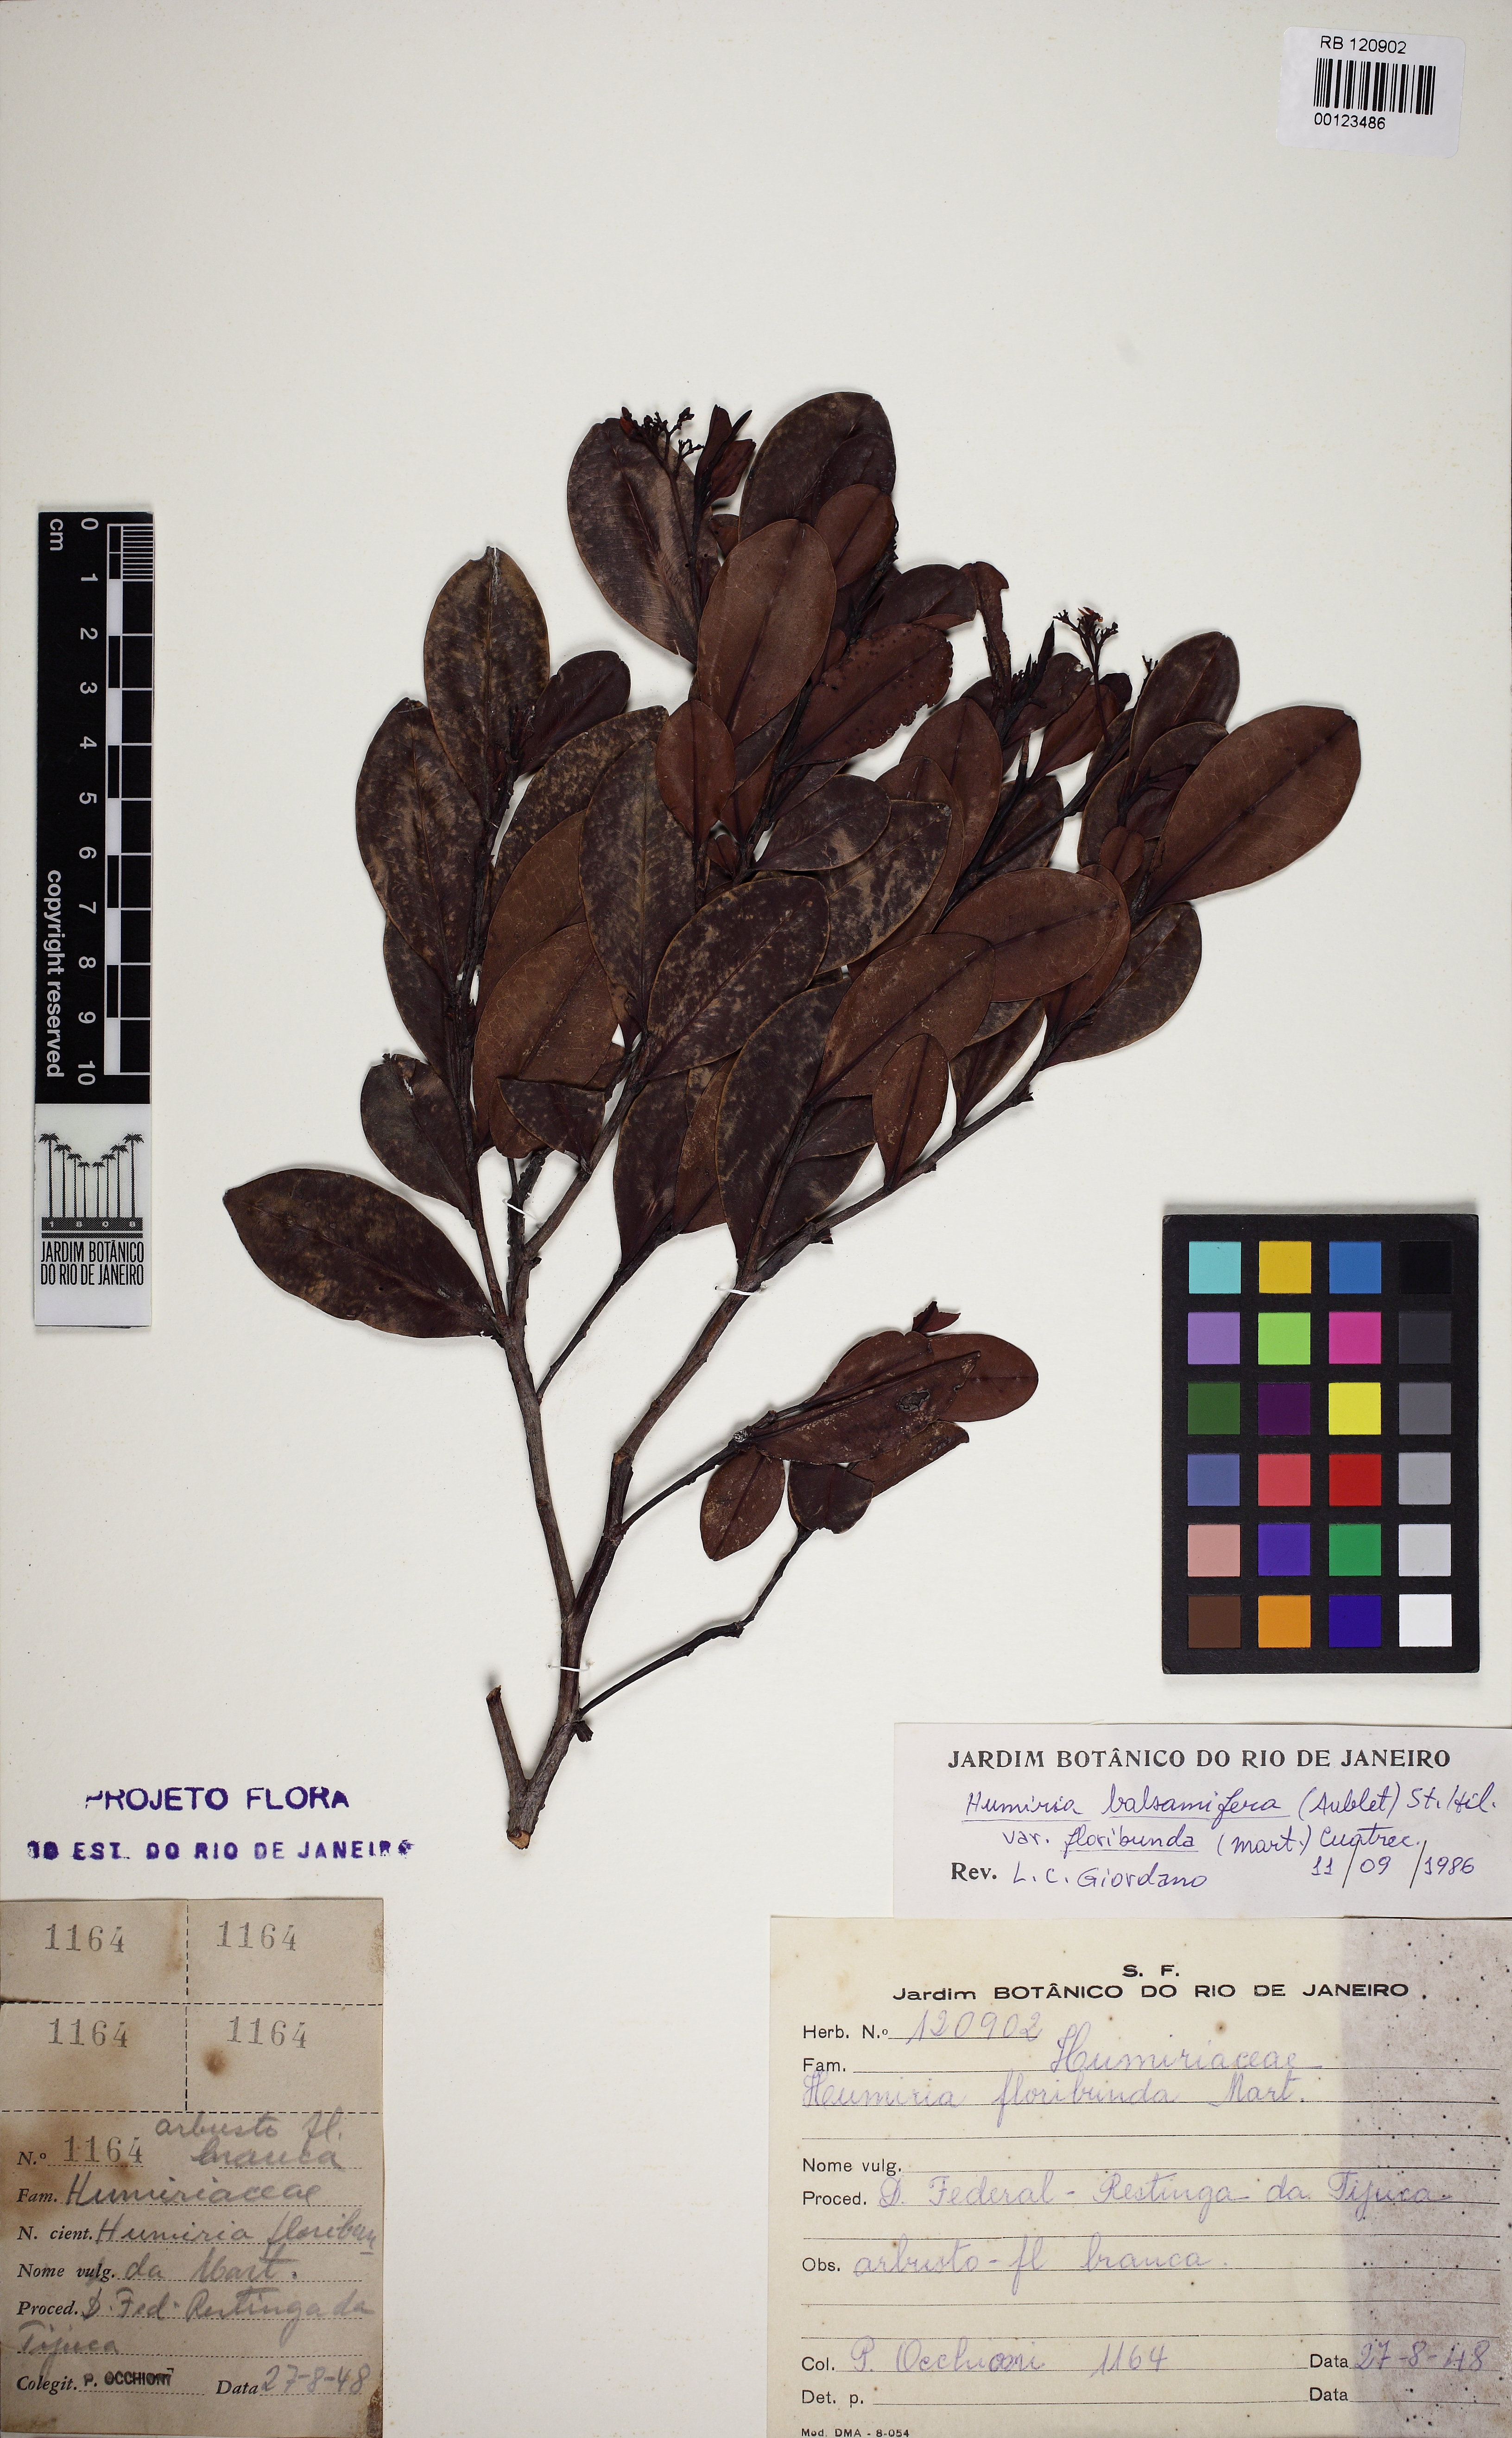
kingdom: Plantae
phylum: Tracheophyta
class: Magnoliopsida
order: Malpighiales
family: Humiriaceae
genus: Humiria
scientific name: Humiria balsamifera
